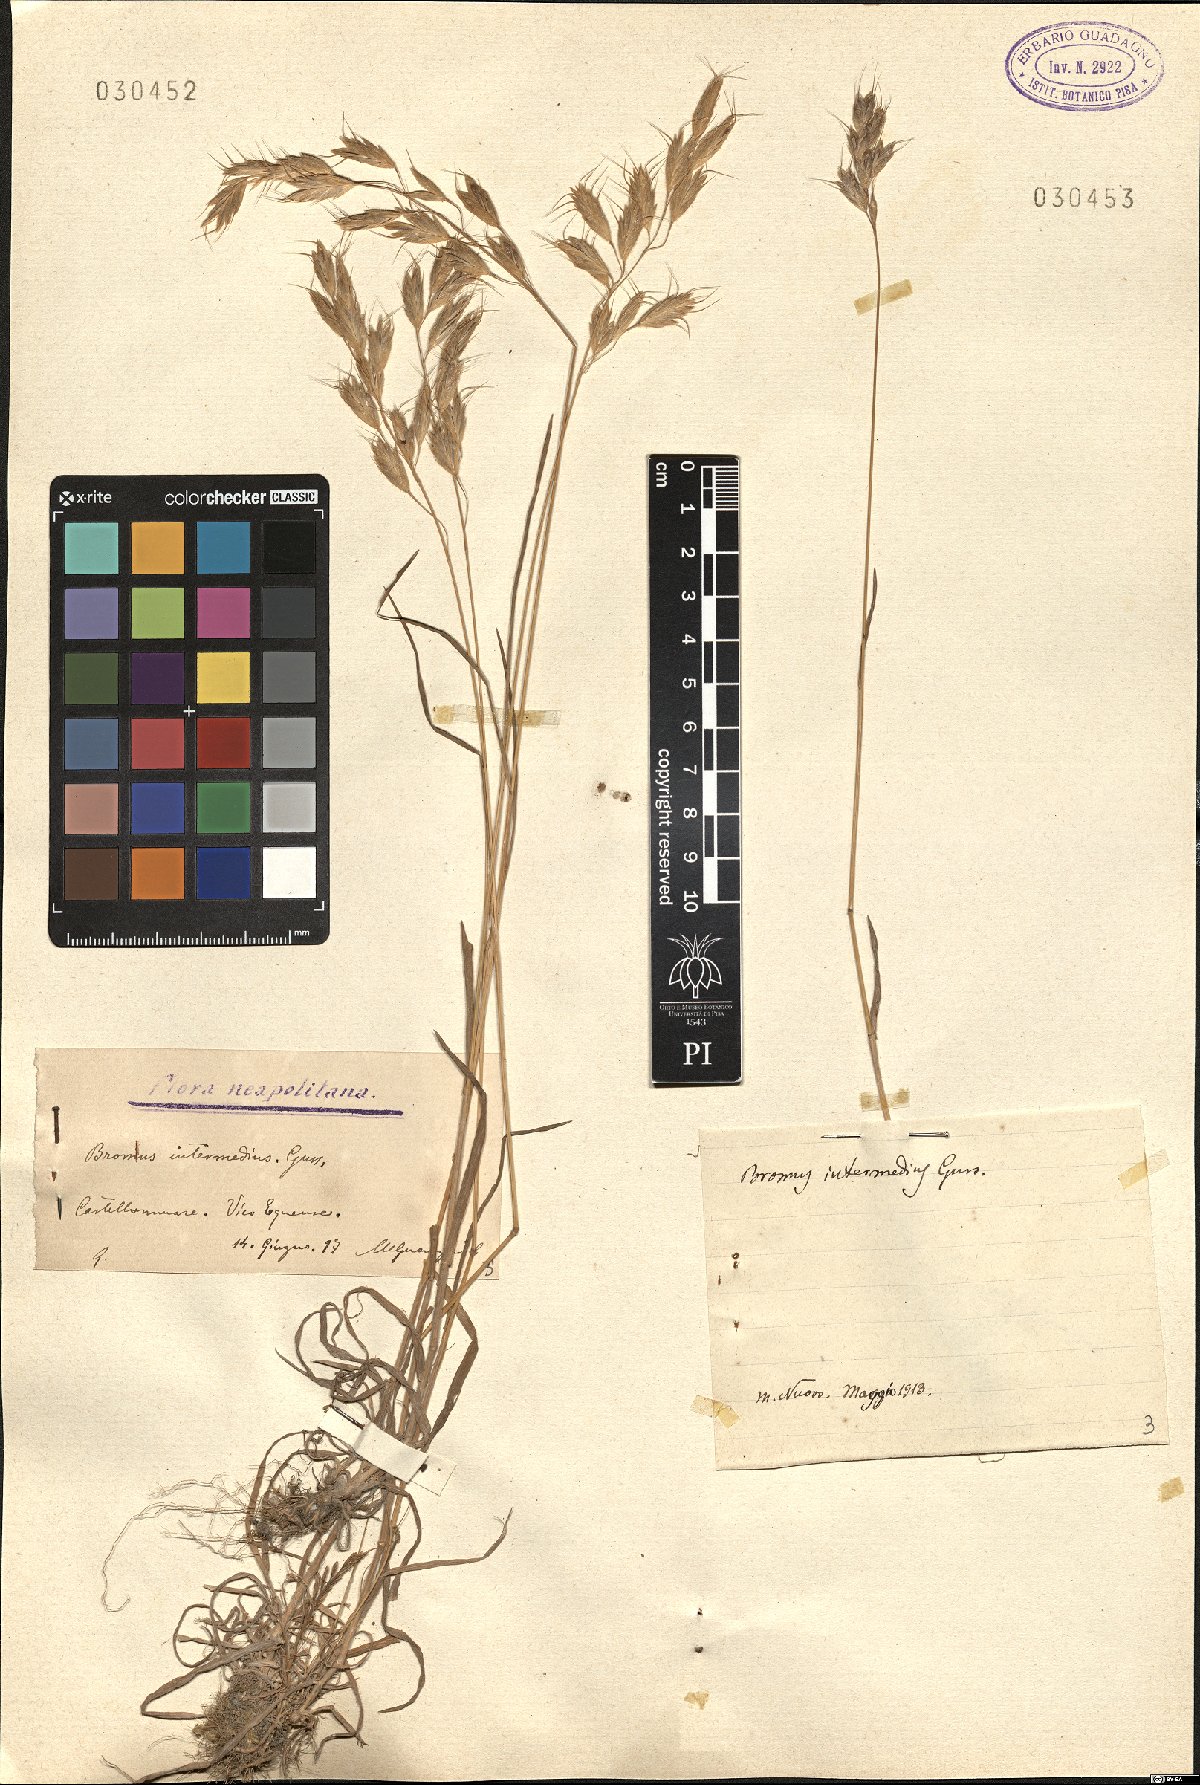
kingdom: Plantae
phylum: Tracheophyta
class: Liliopsida
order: Poales
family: Poaceae
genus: Bromus
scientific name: Bromus intermedius
